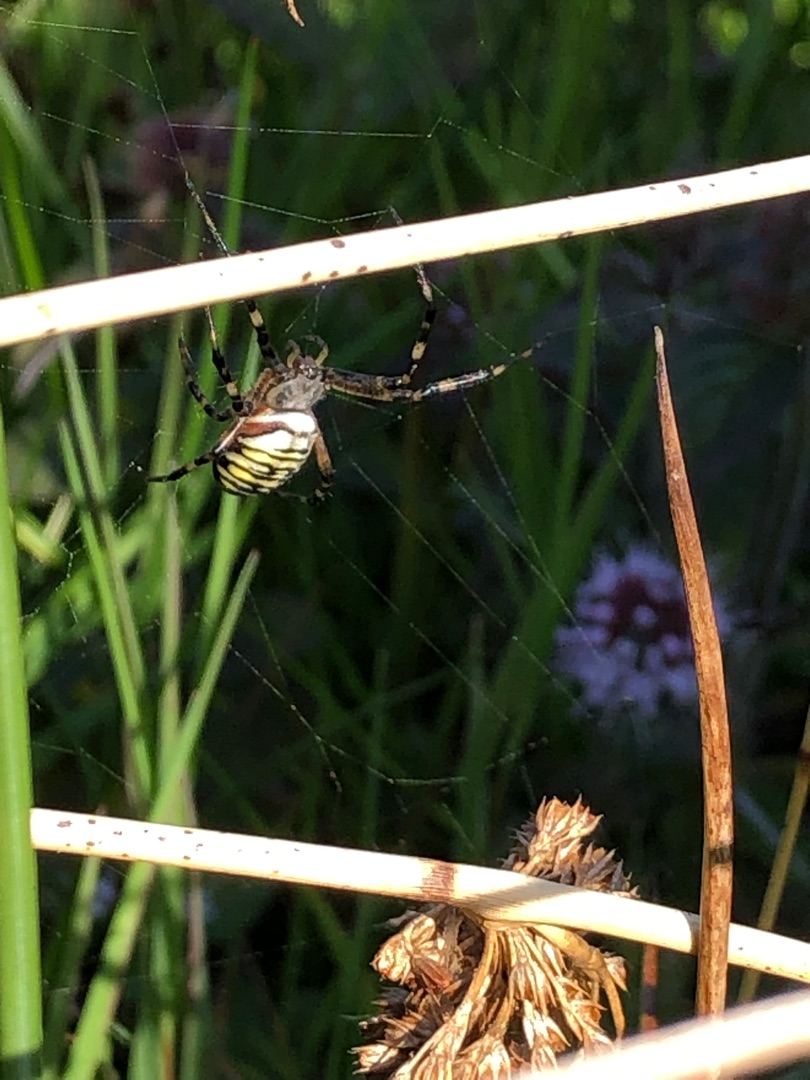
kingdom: Animalia
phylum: Arthropoda
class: Arachnida
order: Araneae
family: Araneidae
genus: Argiope
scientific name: Argiope bruennichi
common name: Hvepseedderkop
